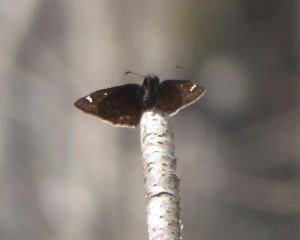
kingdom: Animalia
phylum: Arthropoda
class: Insecta
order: Lepidoptera
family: Hesperiidae
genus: Gesta
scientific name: Gesta
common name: Juvenal's Duskywing
